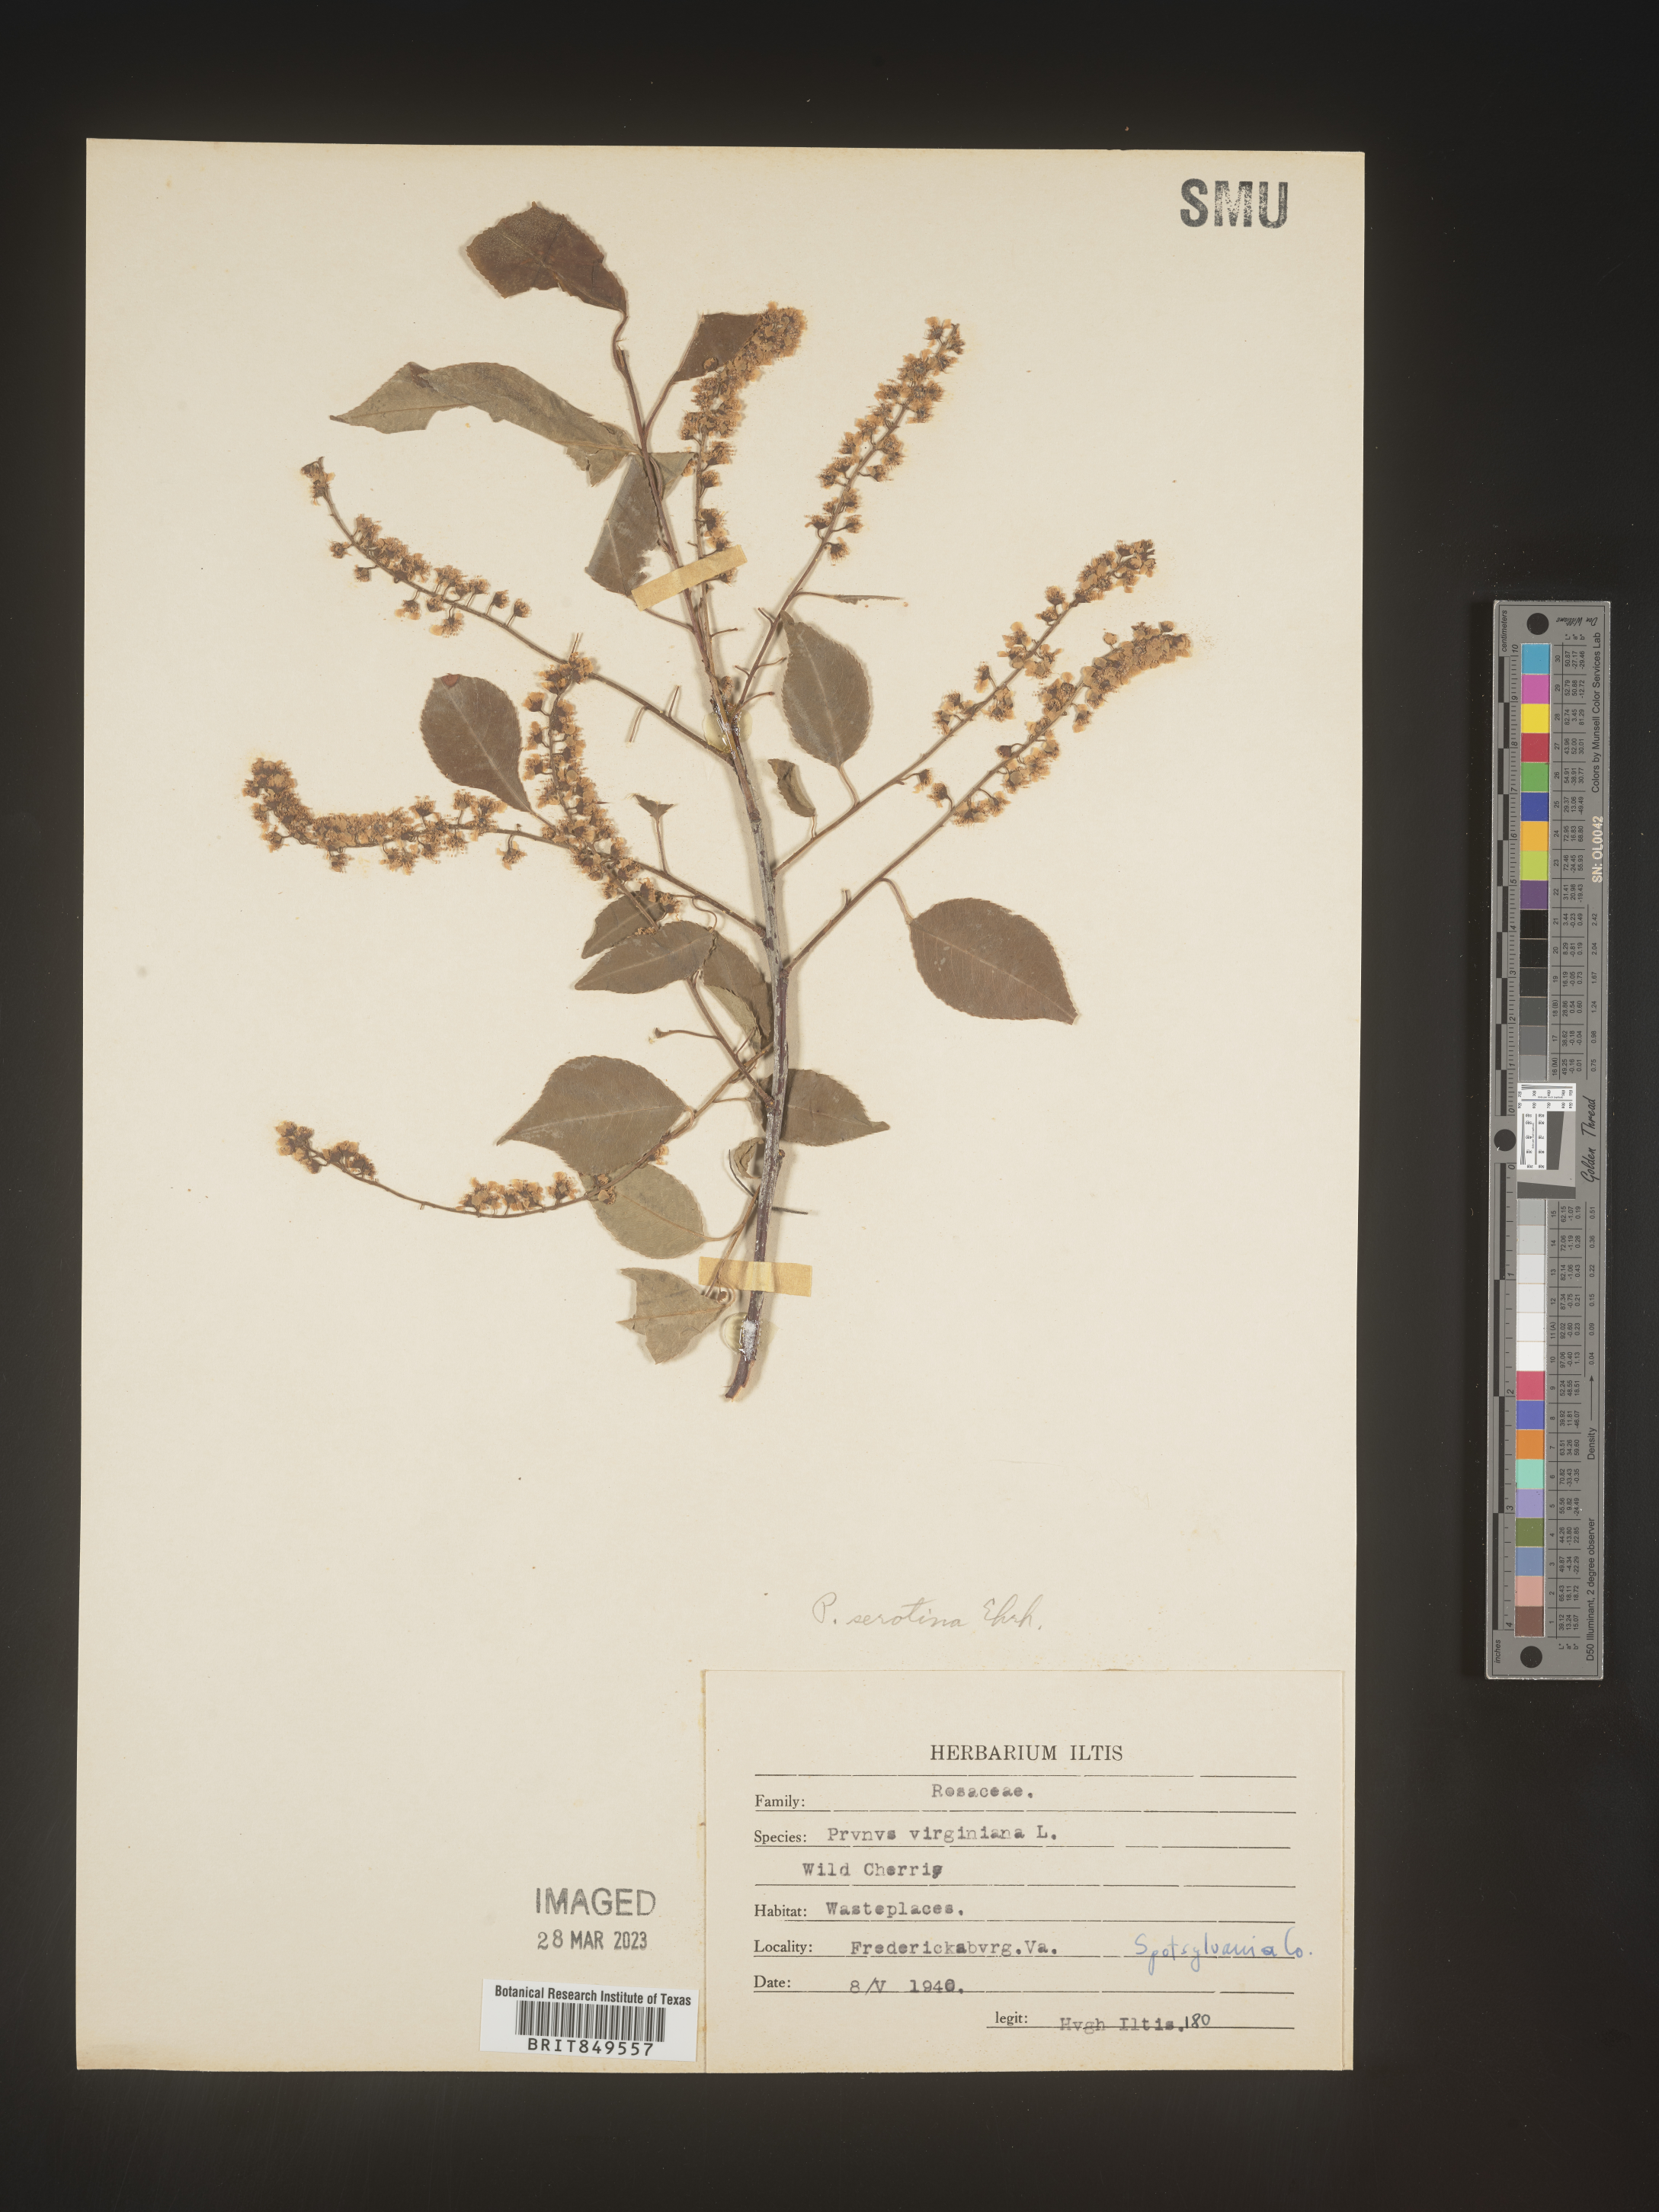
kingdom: Plantae
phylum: Tracheophyta
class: Magnoliopsida
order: Rosales
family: Rosaceae
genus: Prunus
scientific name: Prunus serotina
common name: Black cherry
